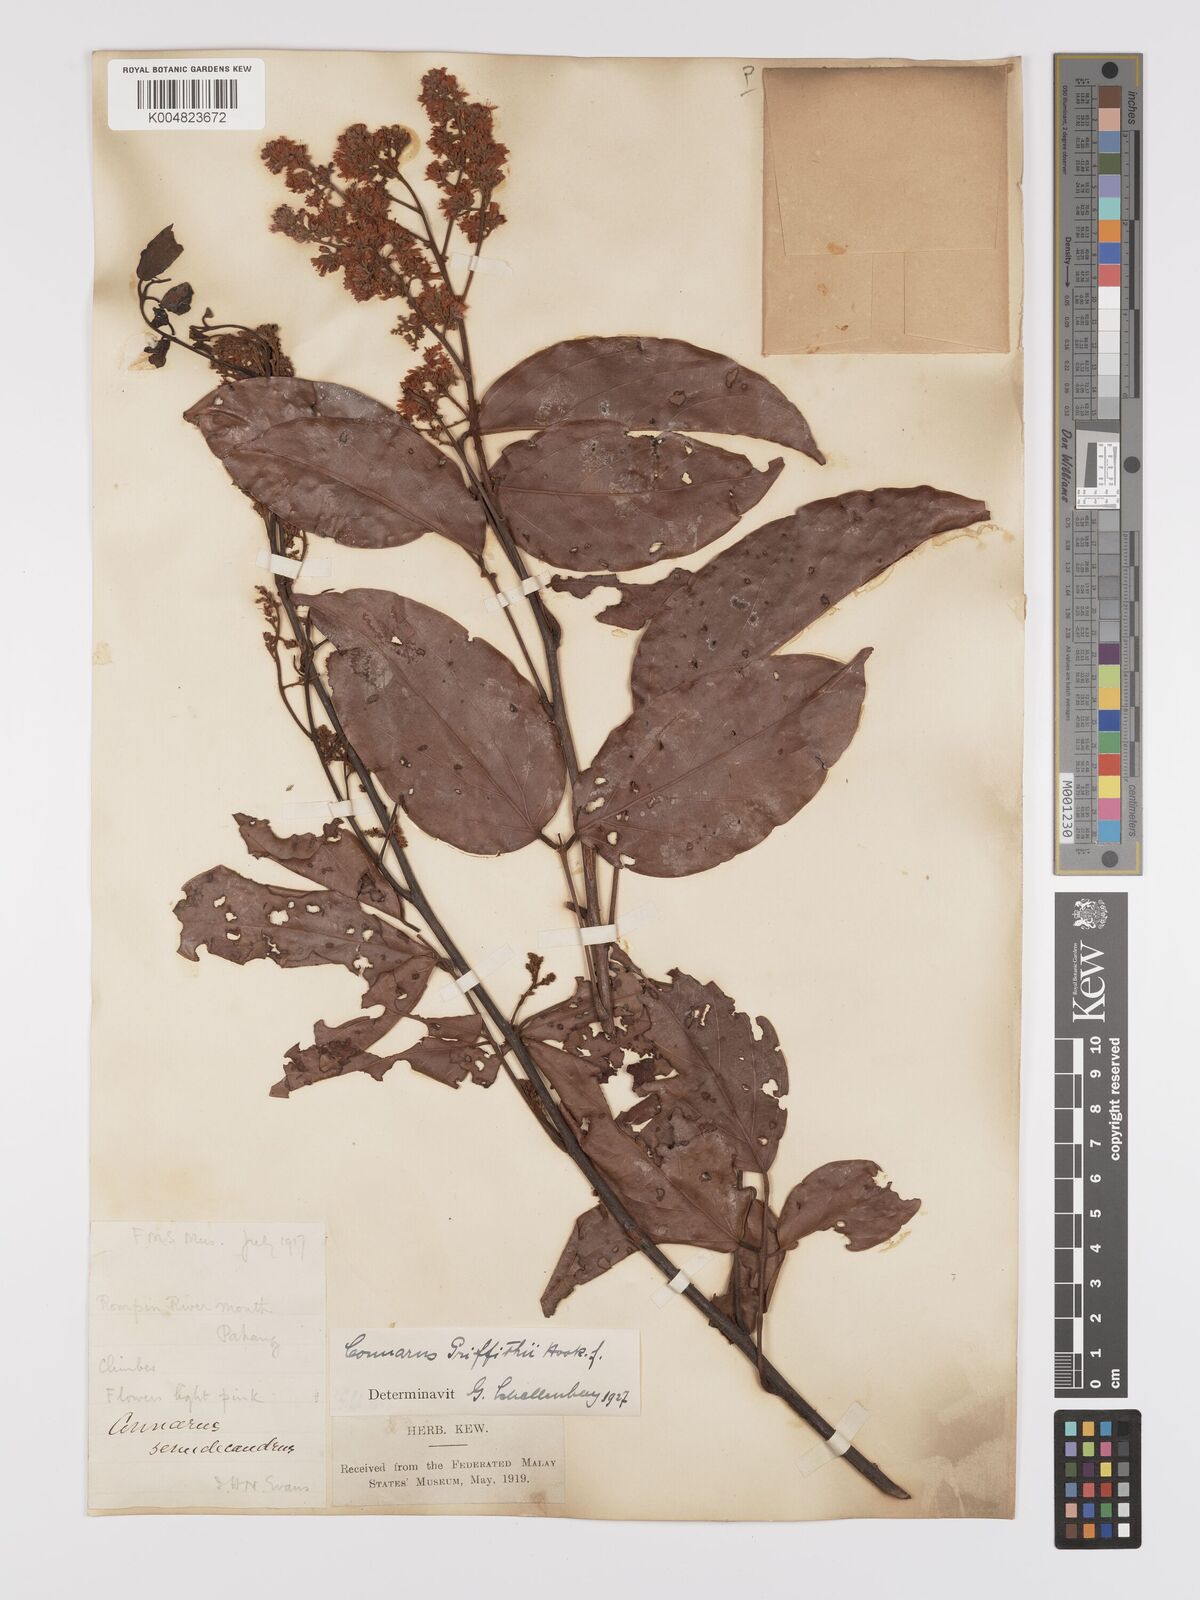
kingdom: Plantae
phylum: Tracheophyta
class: Magnoliopsida
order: Oxalidales
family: Connaraceae
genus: Connarus
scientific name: Connarus semidecandrus
